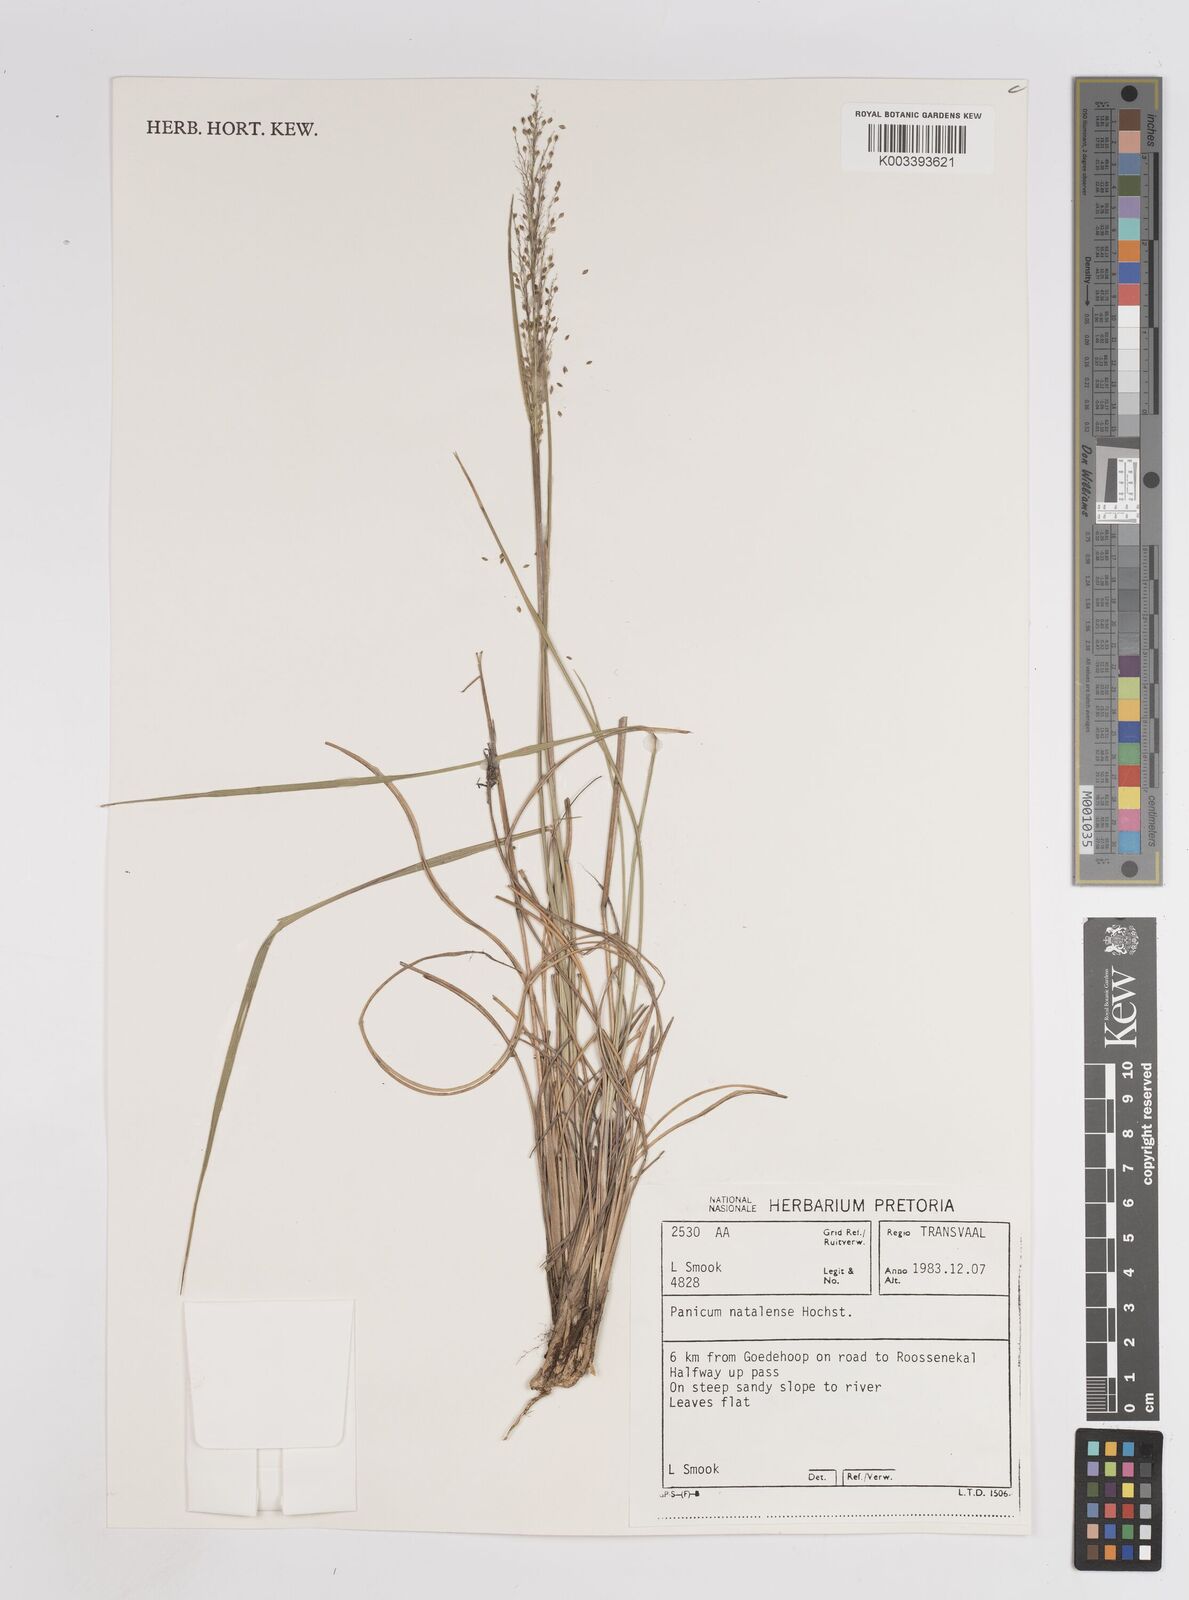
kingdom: Plantae
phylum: Tracheophyta
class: Liliopsida
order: Poales
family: Poaceae
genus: Trichanthecium
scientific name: Trichanthecium natalense
